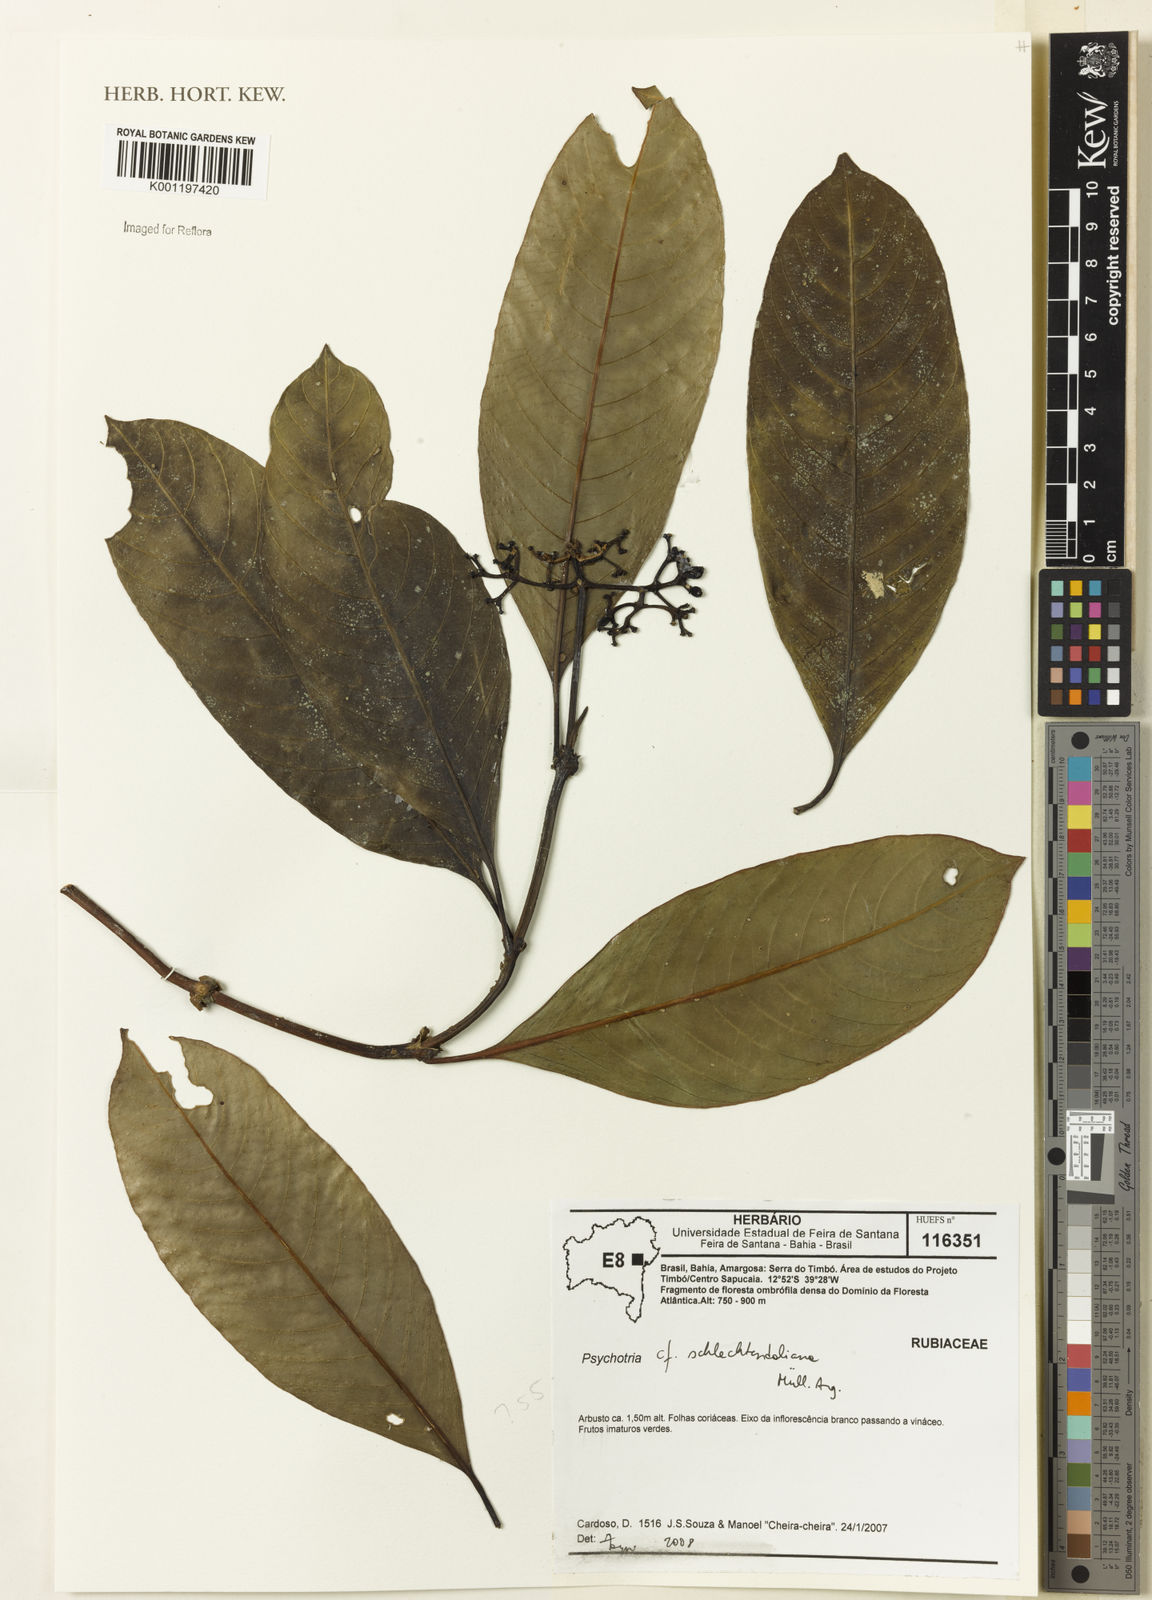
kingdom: Plantae
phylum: Tracheophyta
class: Magnoliopsida
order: Gentianales
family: Rubiaceae
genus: Psychotria
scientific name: Psychotria
